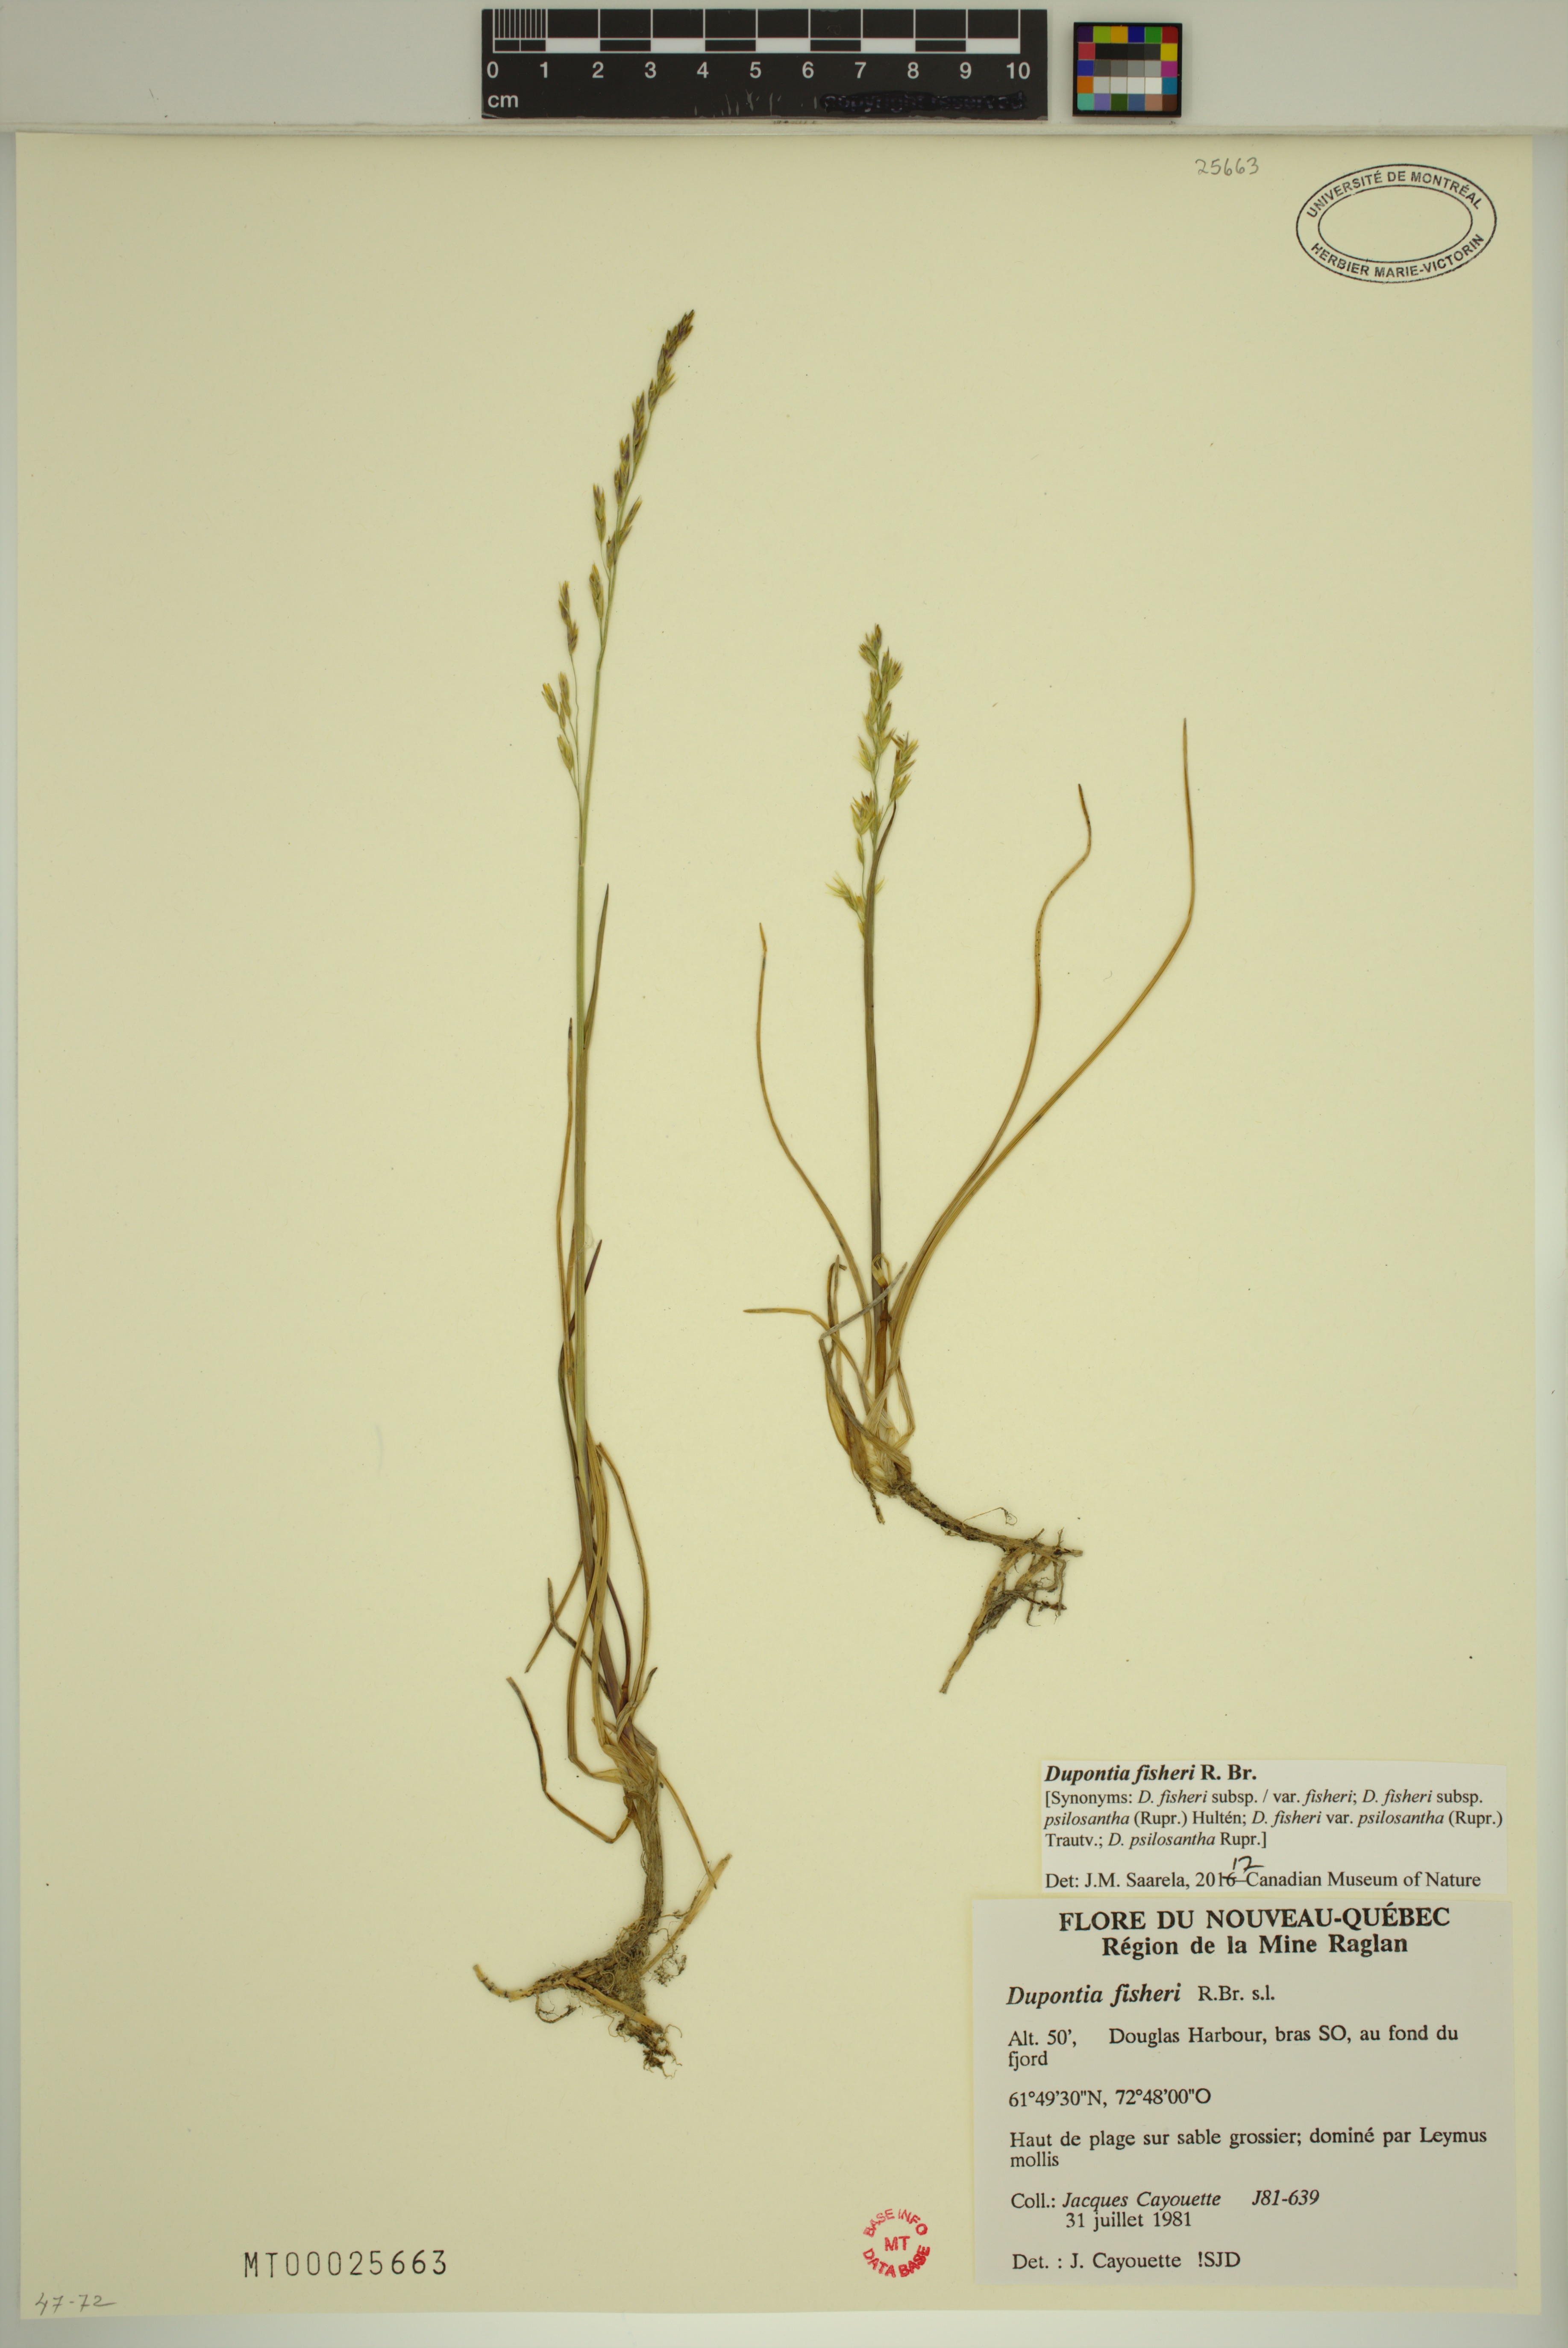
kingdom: Plantae
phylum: Tracheophyta
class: Liliopsida
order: Poales
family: Poaceae
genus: Dupontia
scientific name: Dupontia fisheri
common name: Tundra grass
